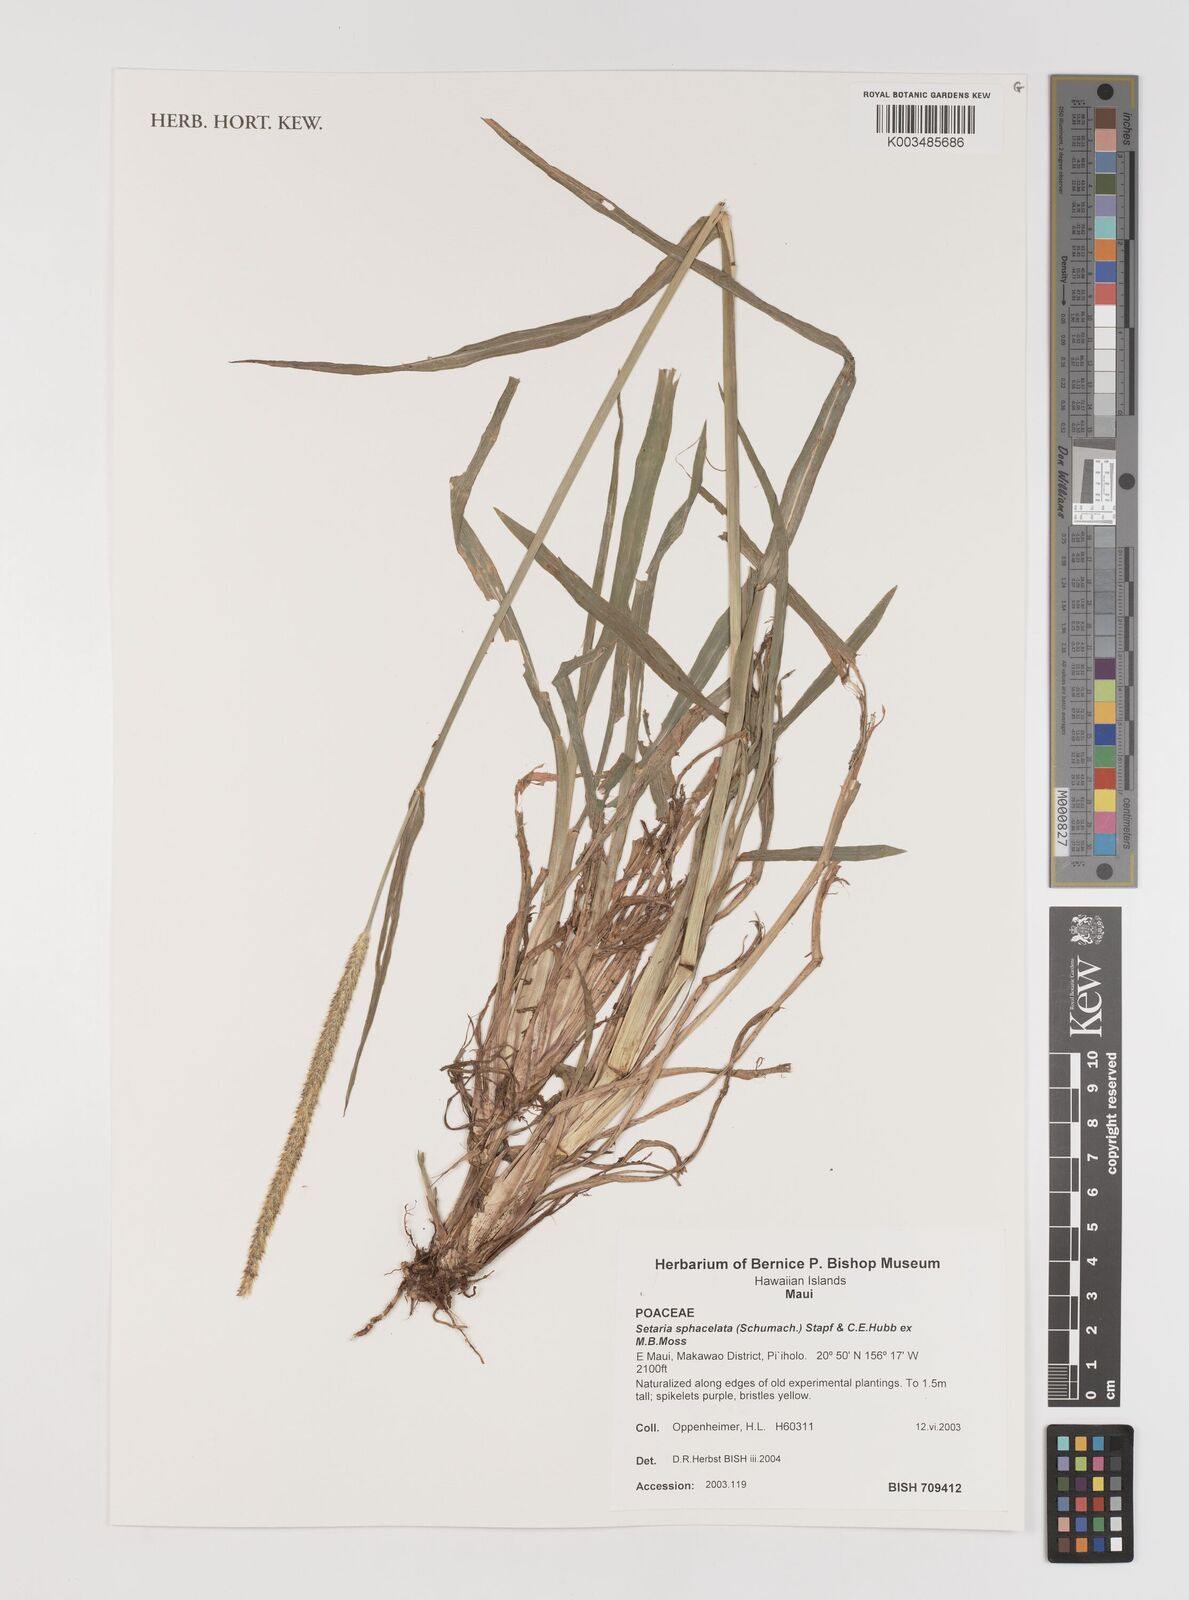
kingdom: Plantae
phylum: Tracheophyta
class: Liliopsida
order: Poales
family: Poaceae
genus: Setaria
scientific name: Setaria sphacelata
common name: African bristlegrass
